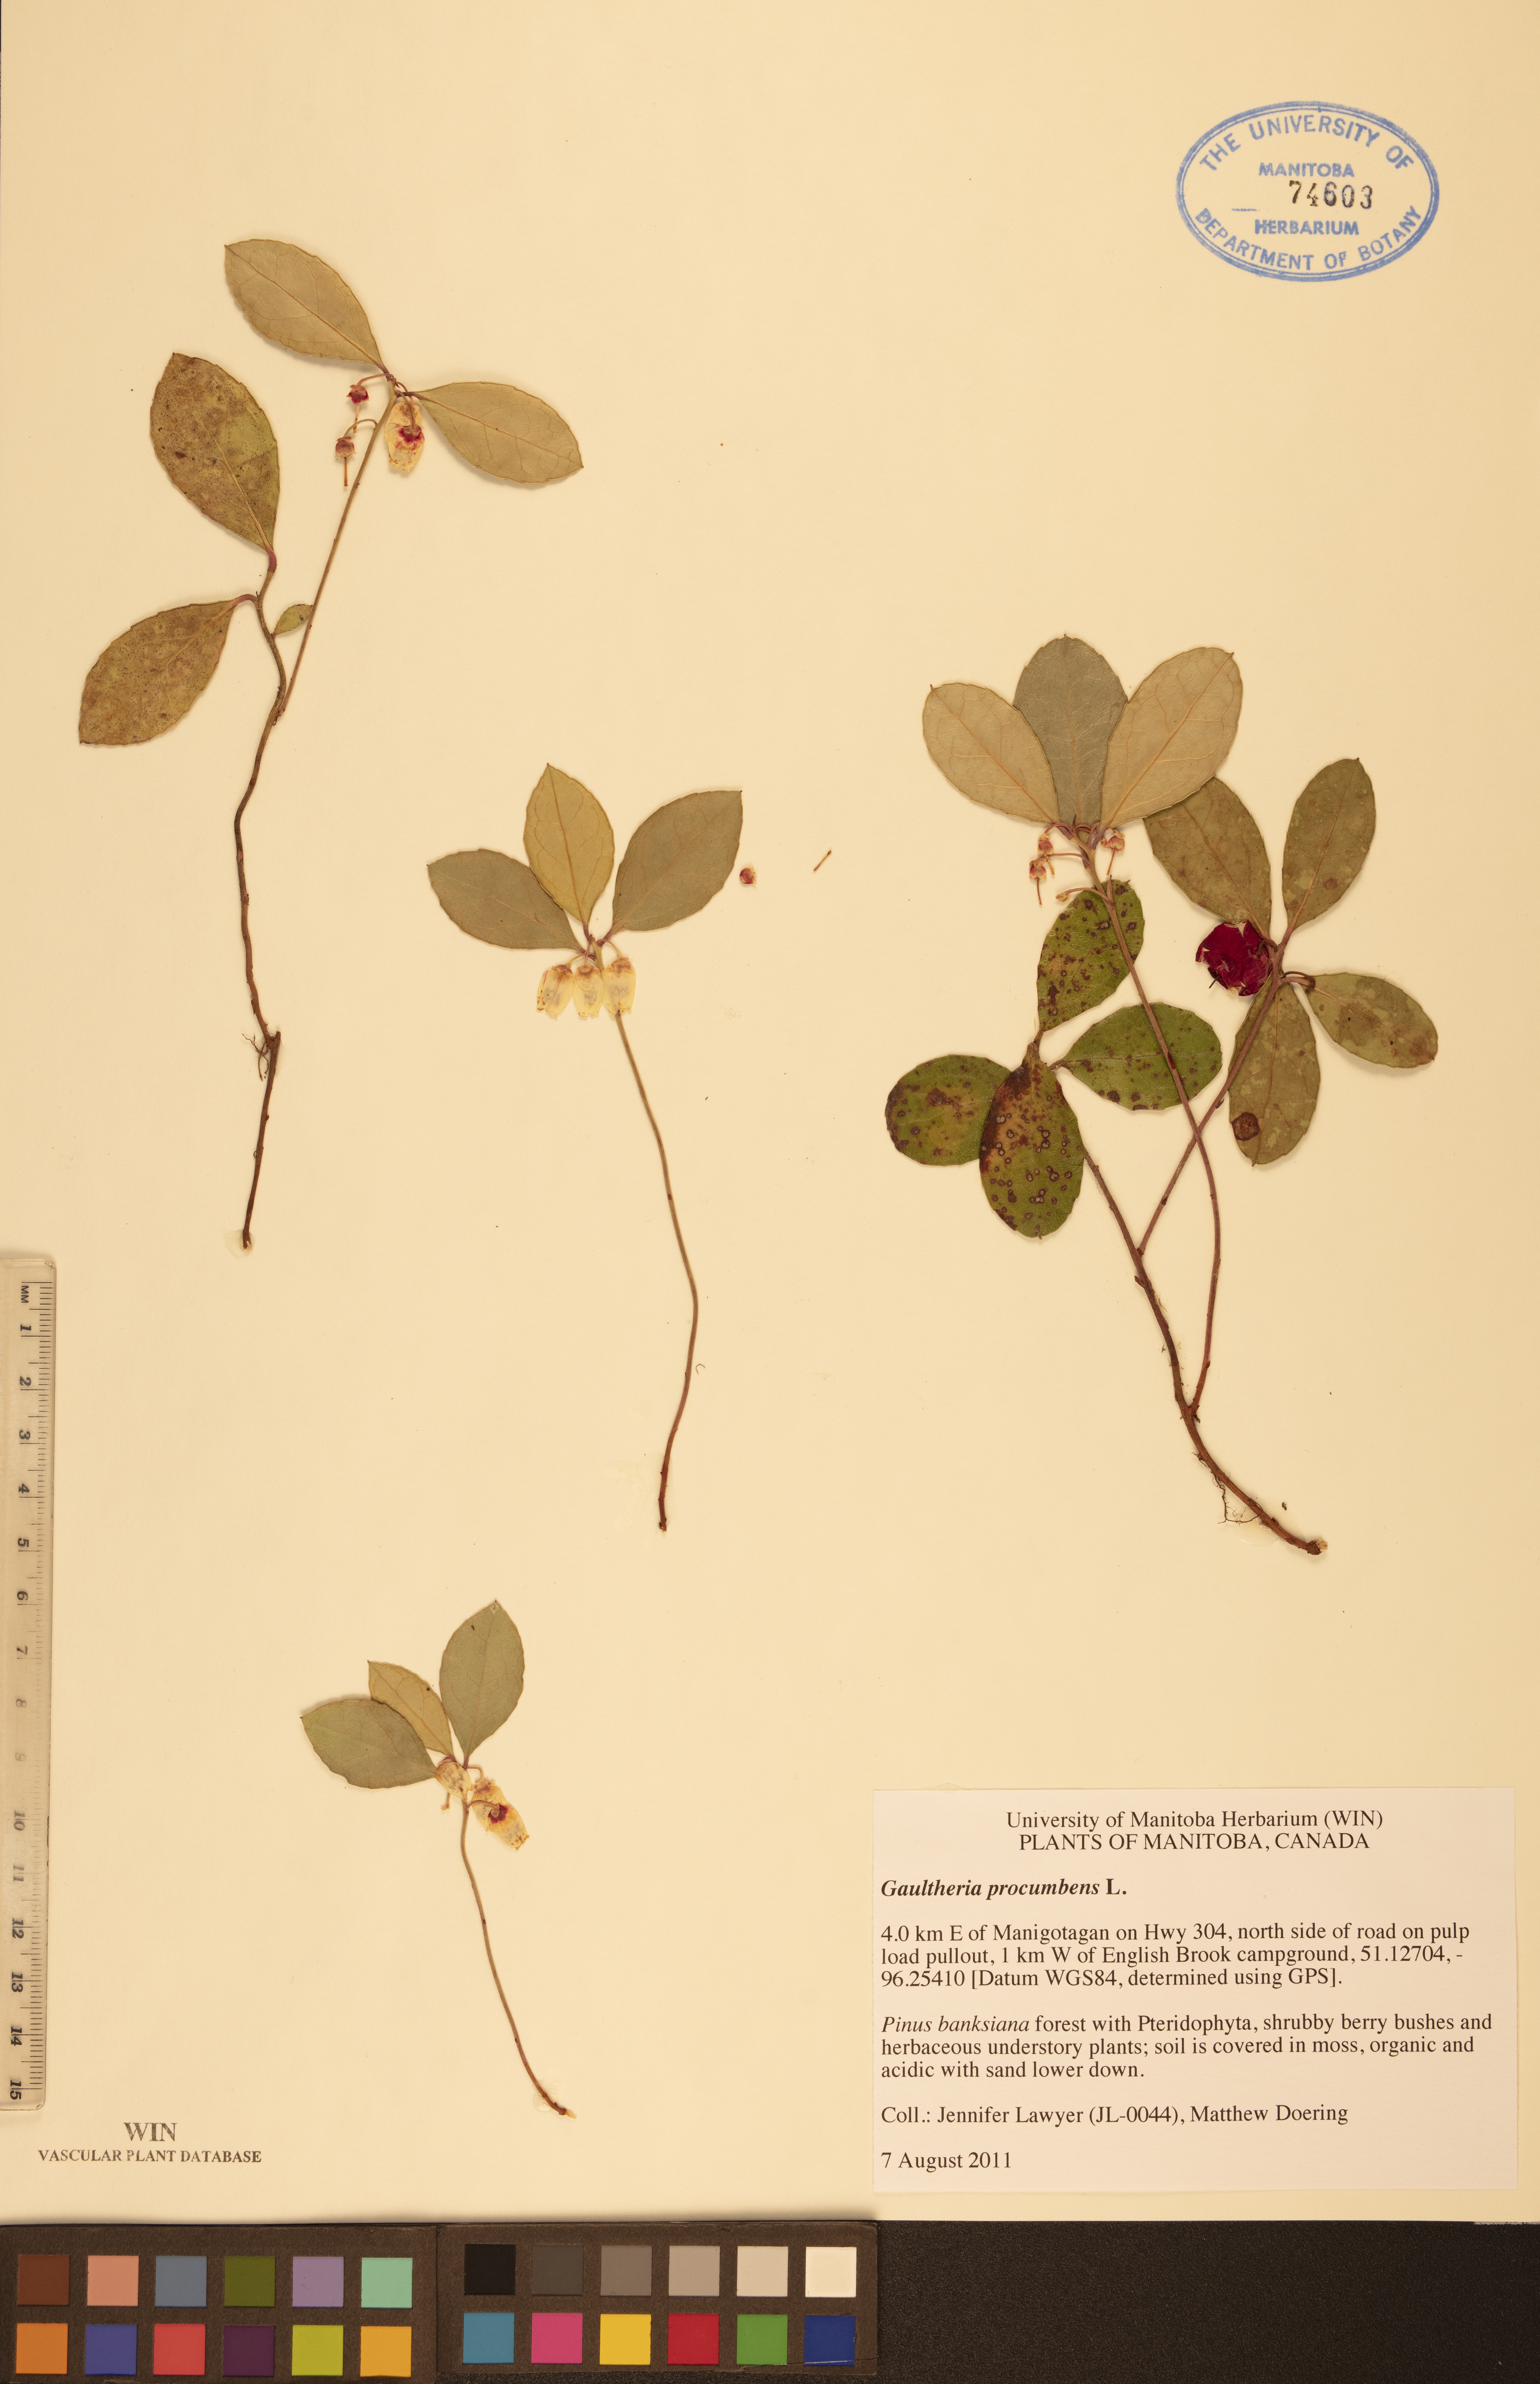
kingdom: Plantae
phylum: Tracheophyta
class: Magnoliopsida
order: Ericales
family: Ericaceae
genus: Gaultheria
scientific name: Gaultheria procumbens
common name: Checkerberry
